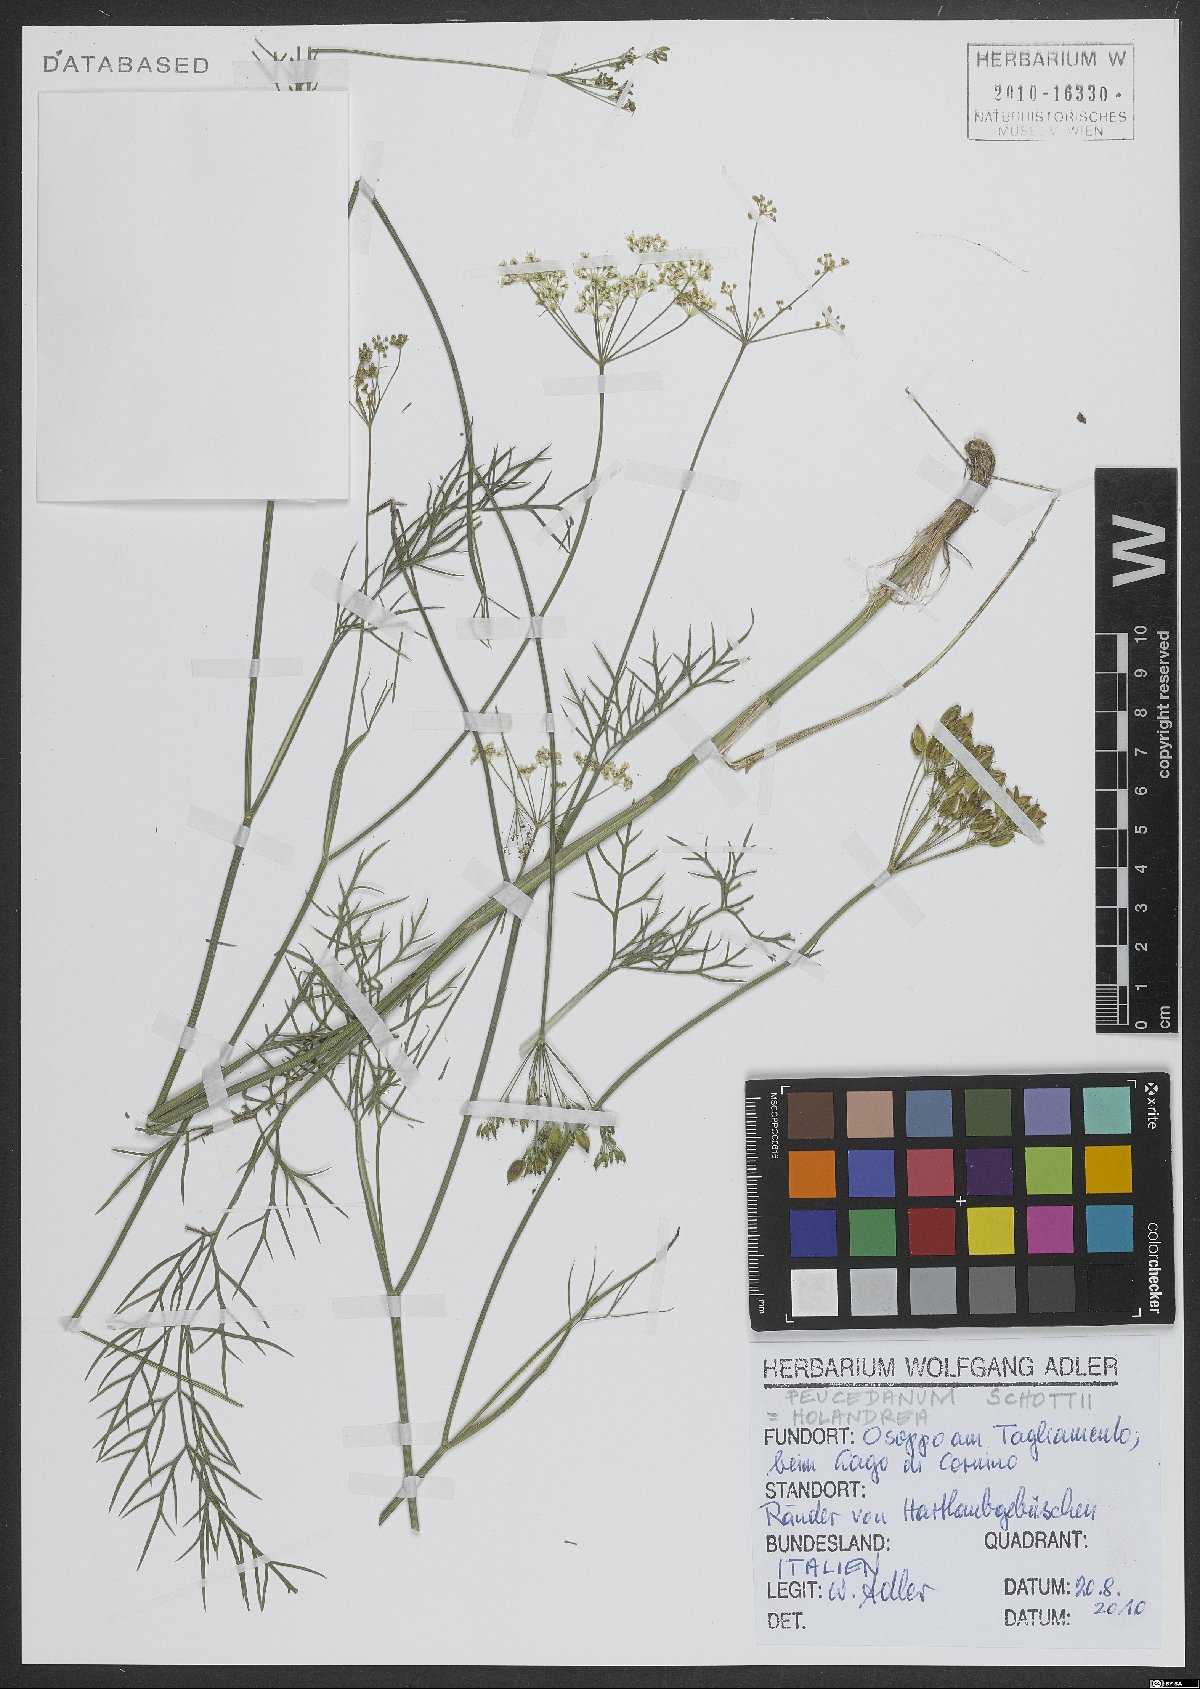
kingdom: Plantae
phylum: Tracheophyta
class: Magnoliopsida
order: Apiales
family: Apiaceae
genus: Dichoropetalum
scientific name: Dichoropetalum schottii
